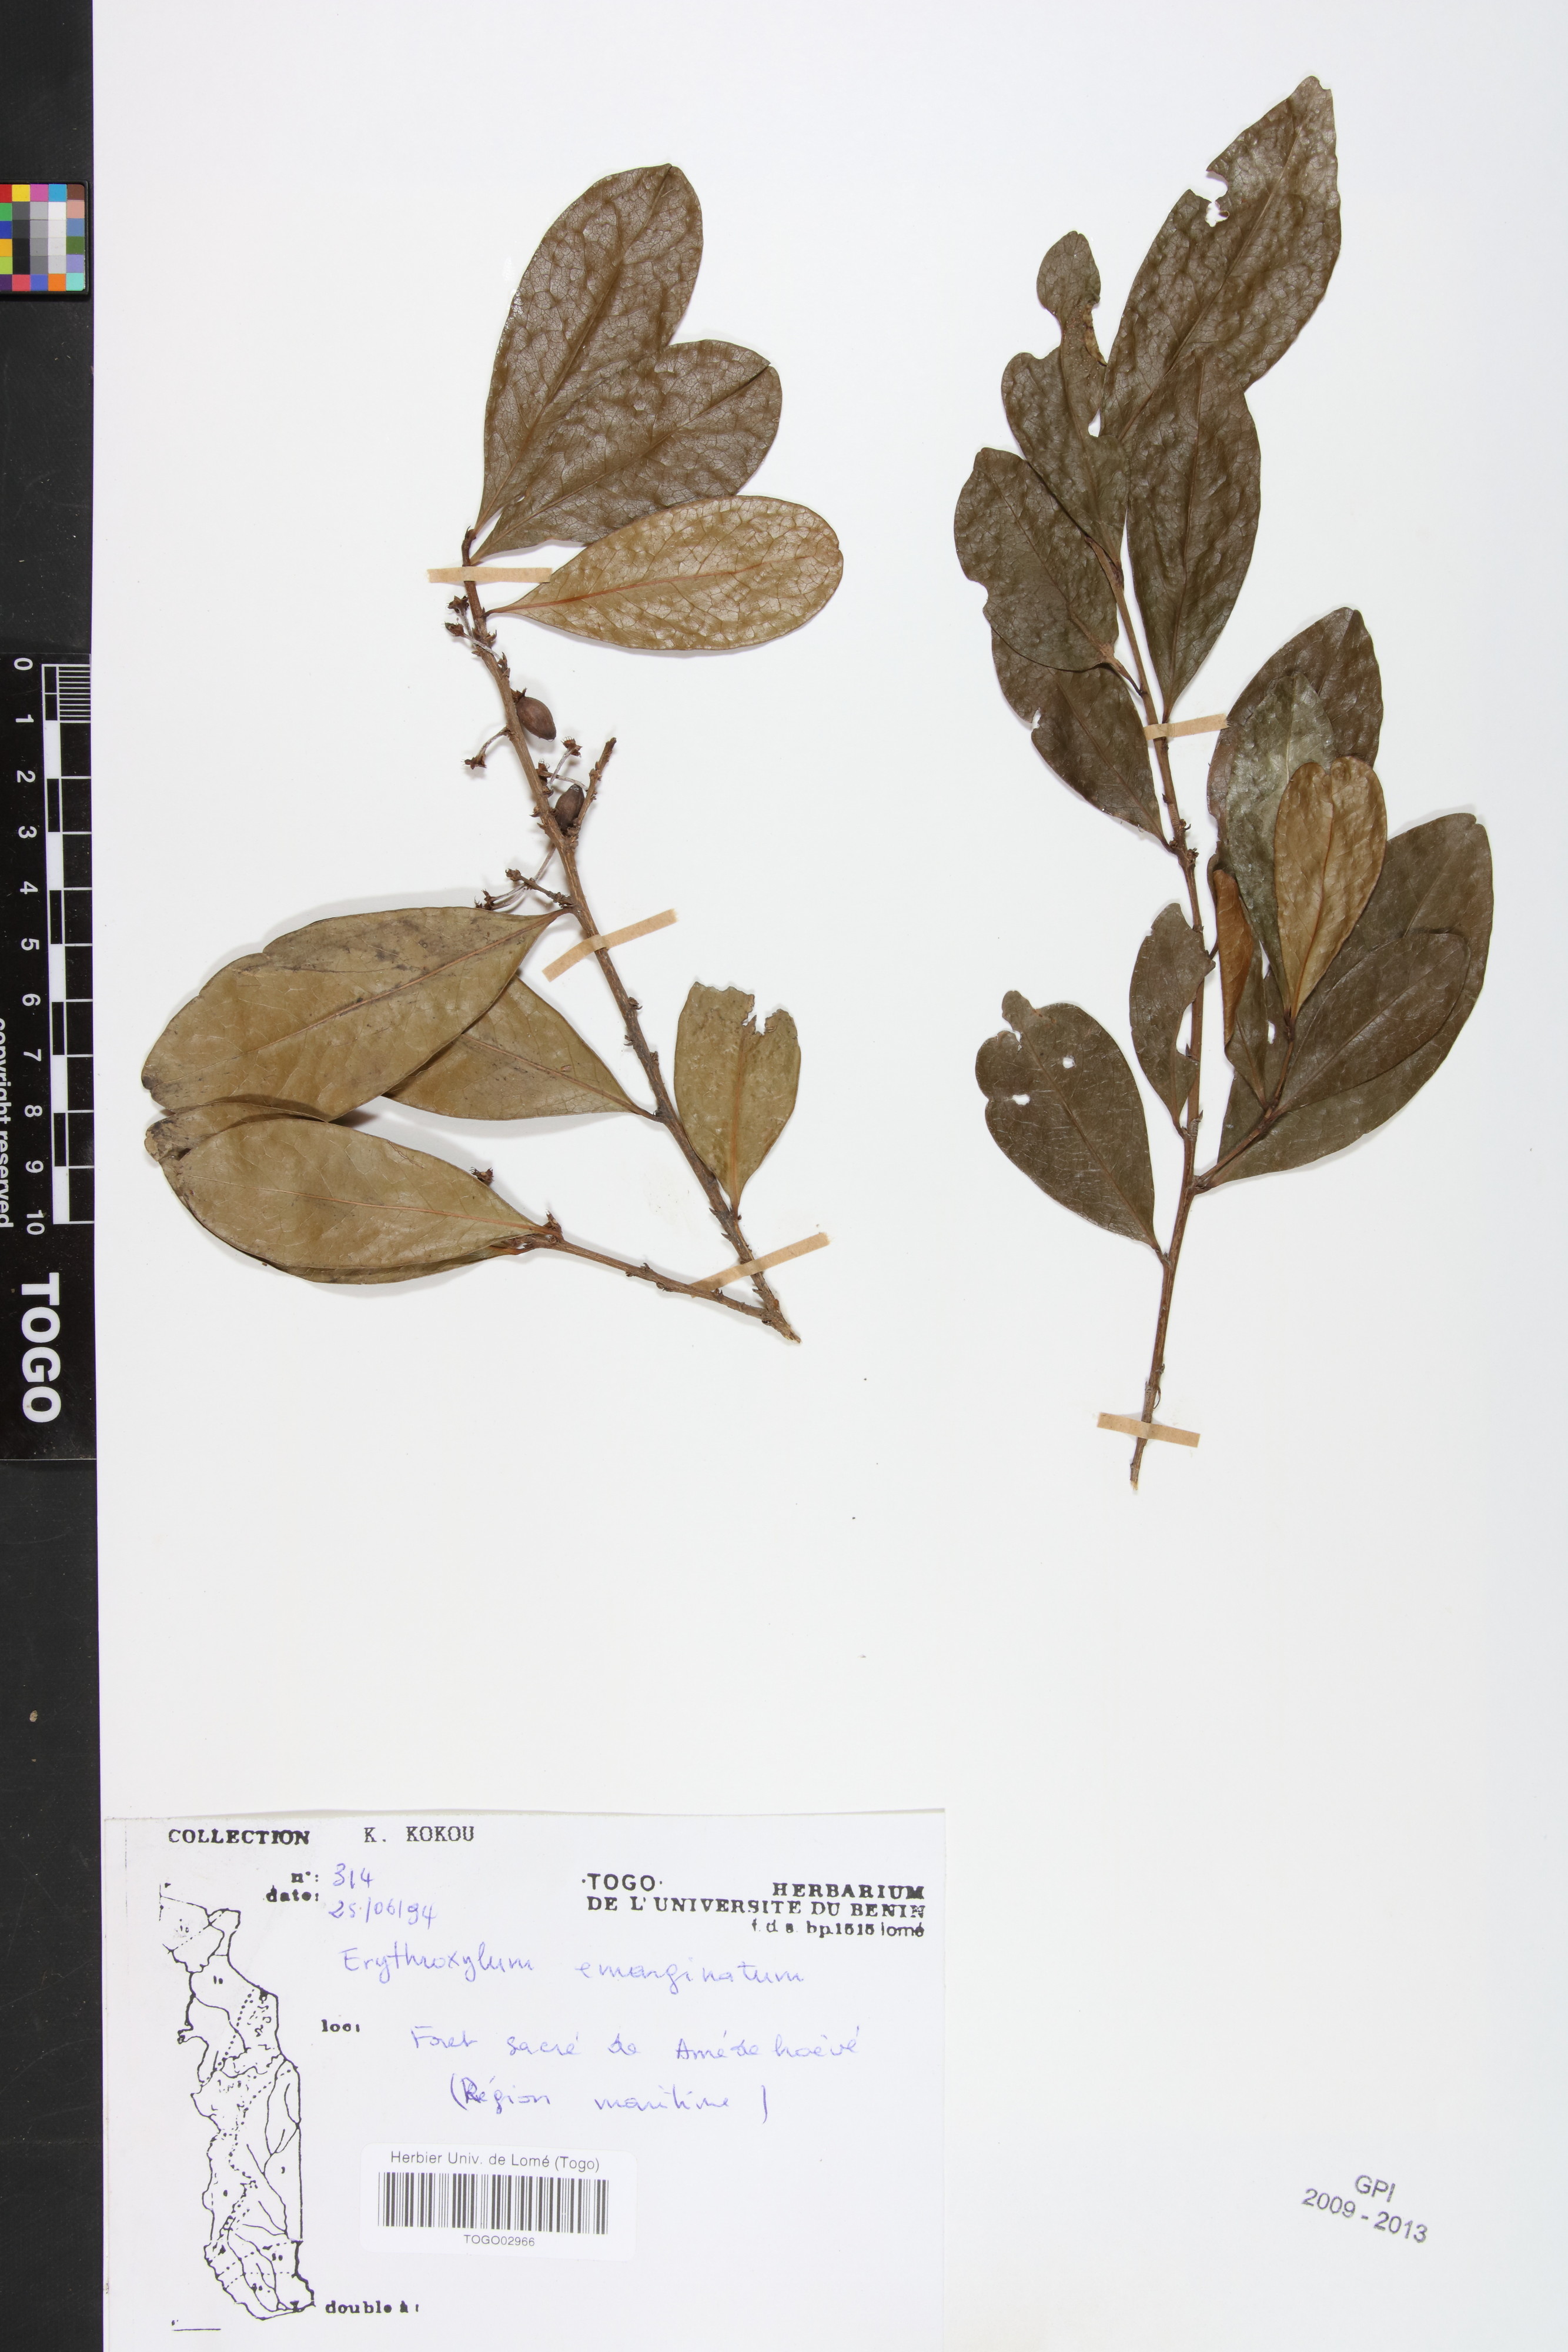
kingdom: Plantae
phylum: Tracheophyta
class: Magnoliopsida
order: Malpighiales
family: Erythroxylaceae
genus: Erythroxylum
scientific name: Erythroxylum emarginatum
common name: African coca-tree
